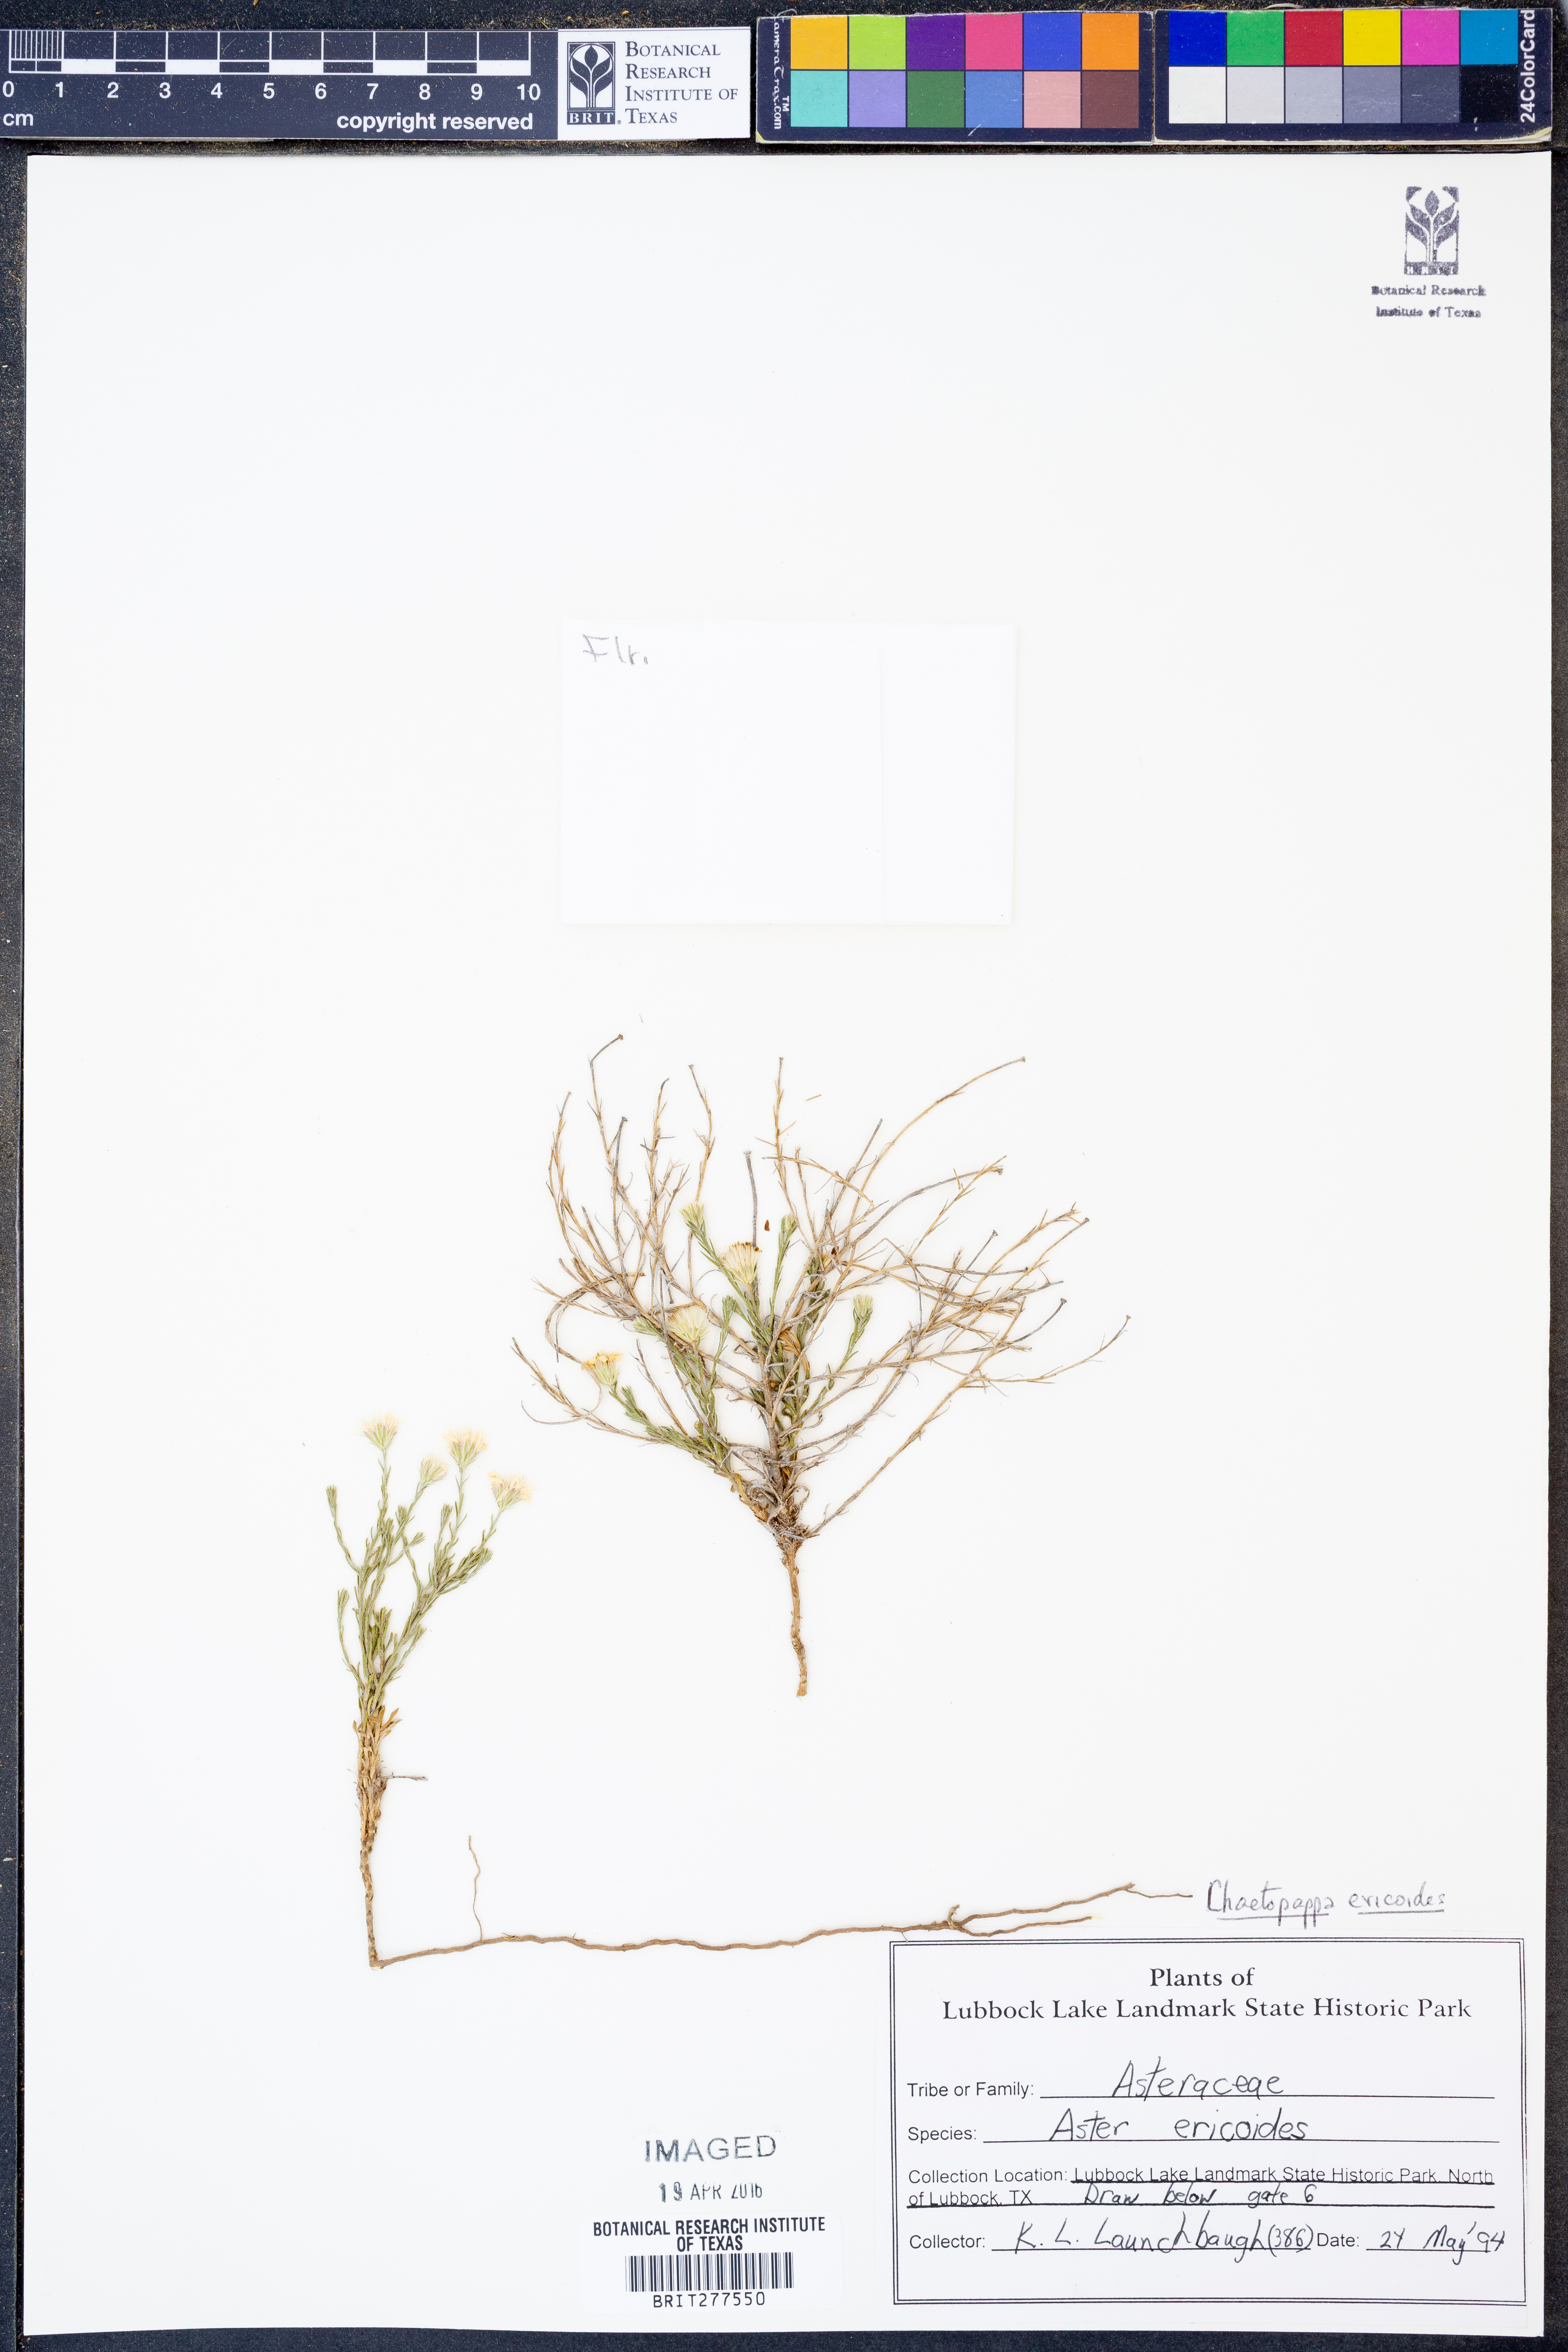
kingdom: Plantae
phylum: Tracheophyta
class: Magnoliopsida
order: Asterales
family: Asteraceae
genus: Chaetopappa
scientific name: Chaetopappa ericoides
